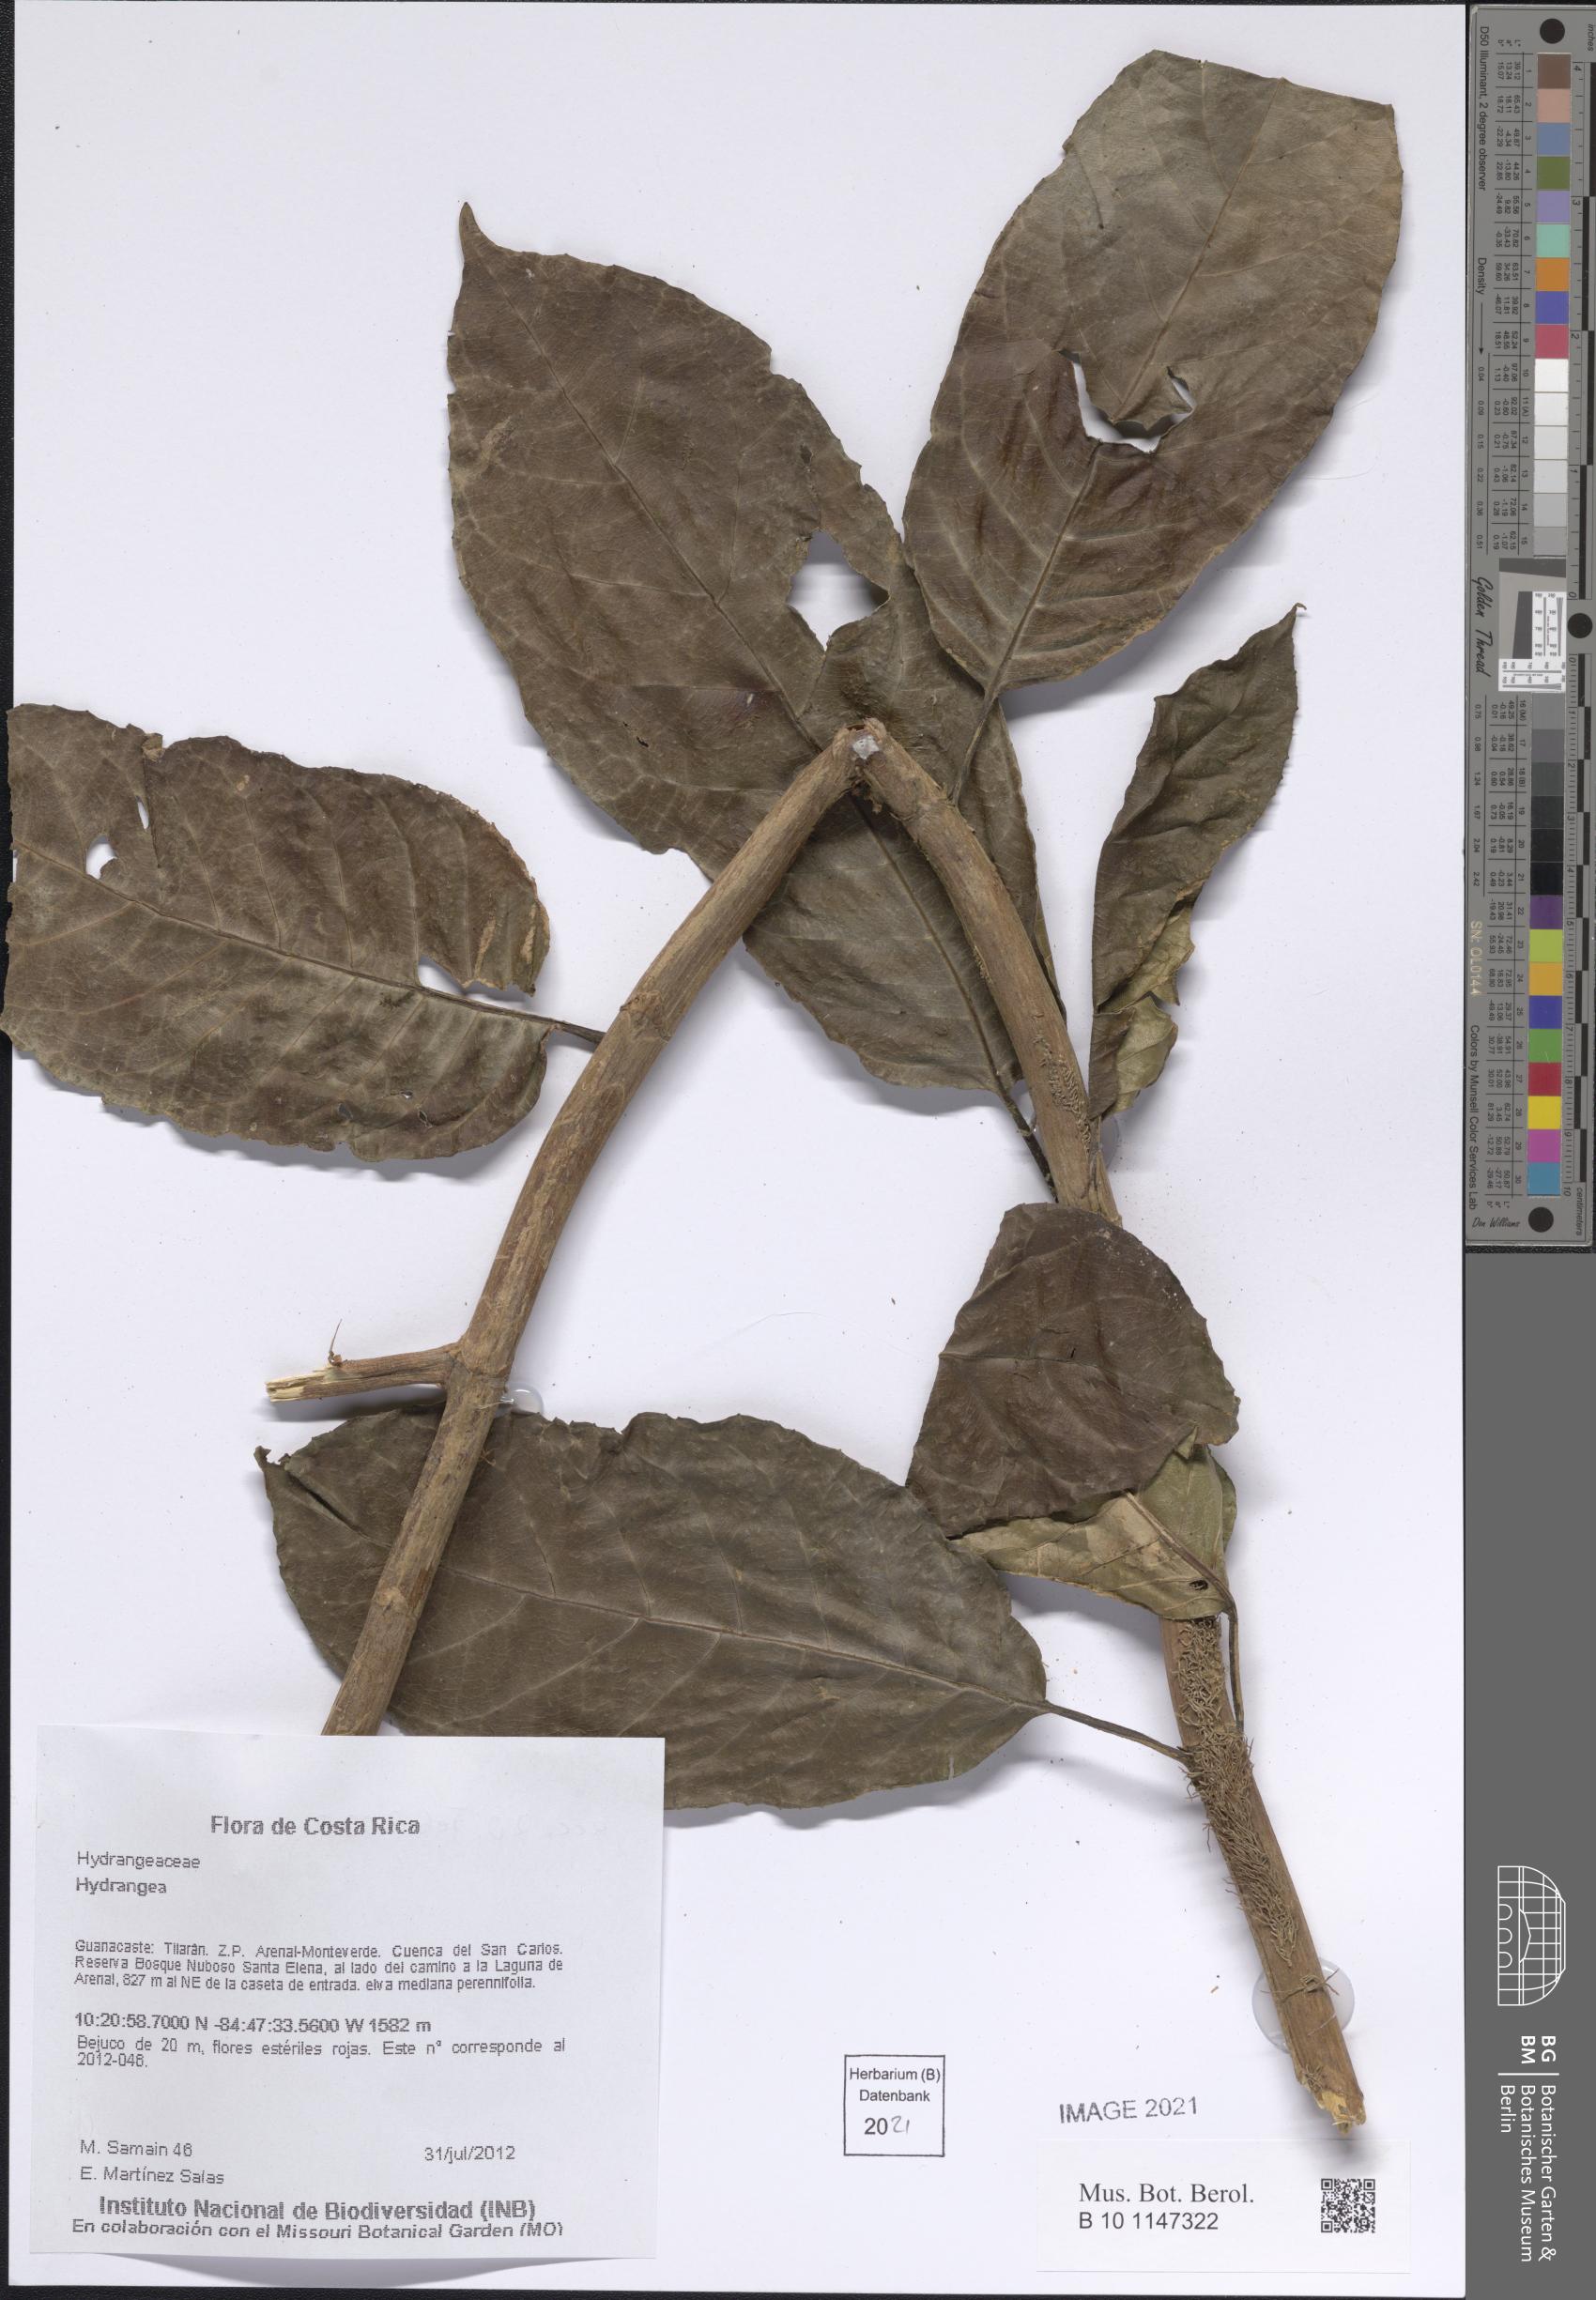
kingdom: Plantae
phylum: Tracheophyta
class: Magnoliopsida
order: Cornales
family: Hydrangeaceae
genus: Hydrangea
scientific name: Hydrangea
